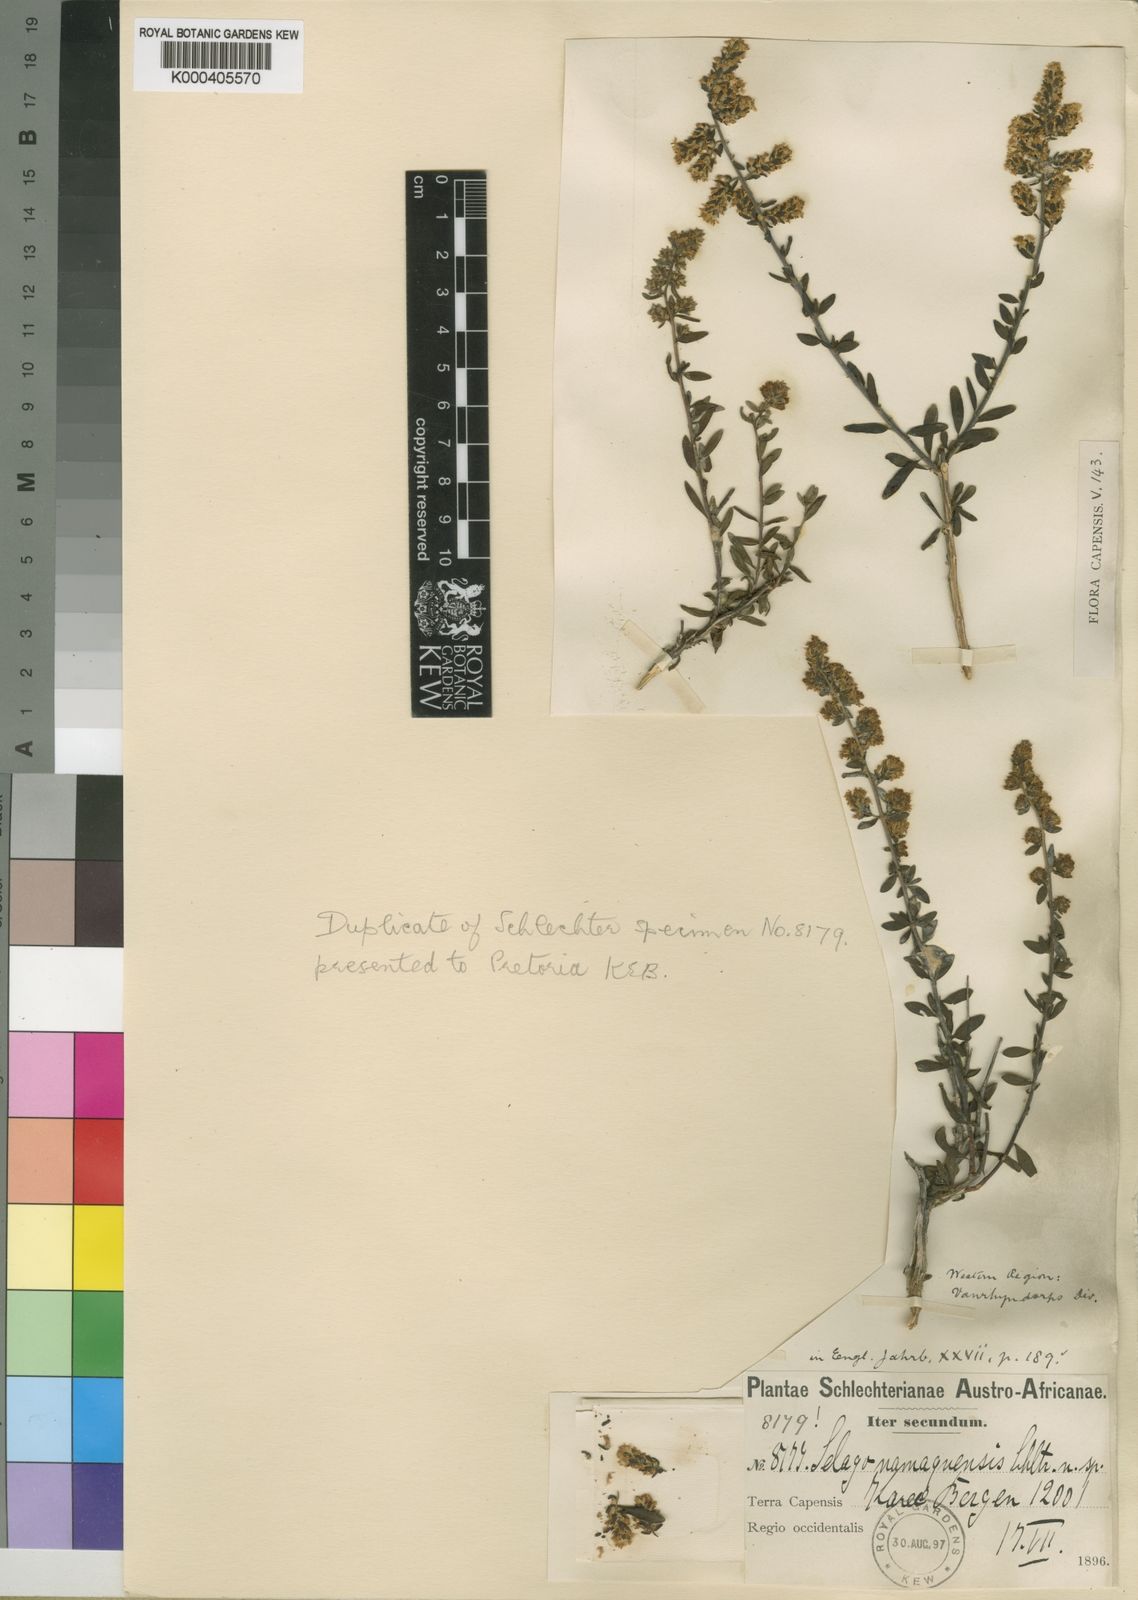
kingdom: Plantae
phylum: Tracheophyta
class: Magnoliopsida
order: Lamiales
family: Scrophulariaceae
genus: Selago
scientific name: Selago namaquensis
